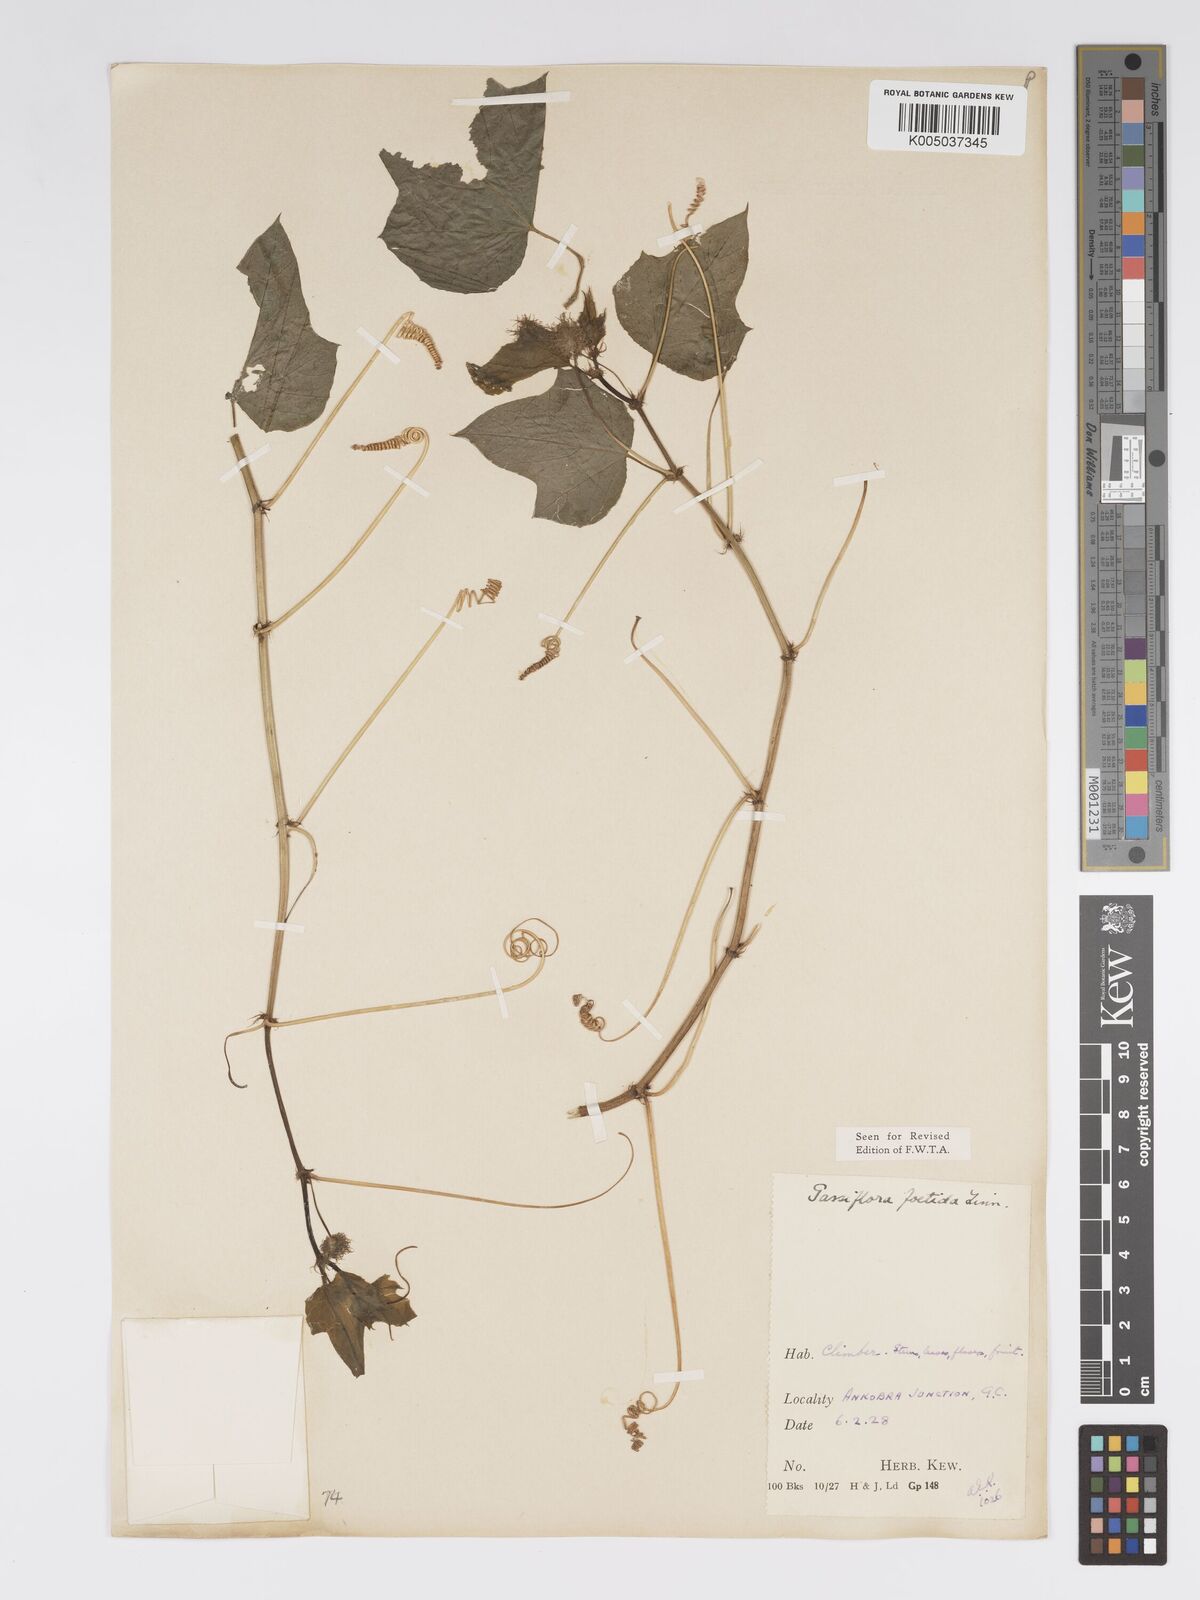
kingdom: Plantae
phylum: Tracheophyta
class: Magnoliopsida
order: Malpighiales
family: Passifloraceae
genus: Passiflora
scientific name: Passiflora foetida
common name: Fetid passionflower
